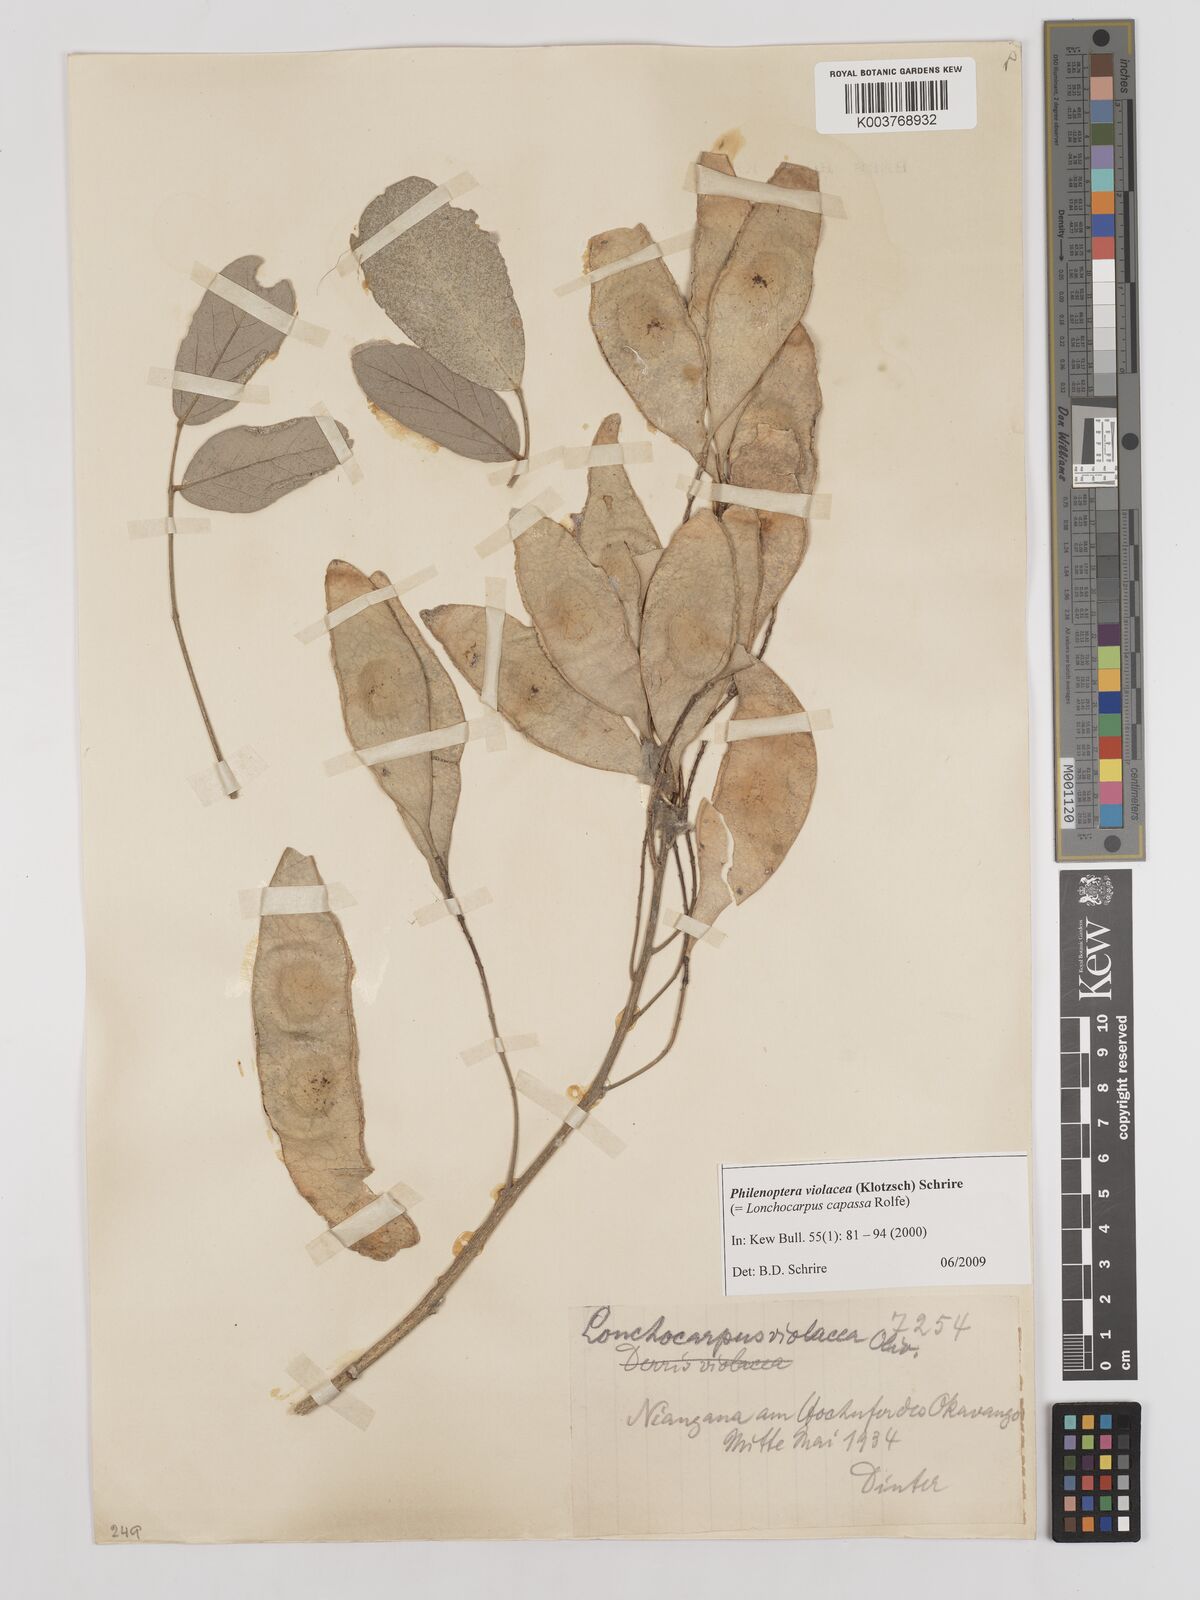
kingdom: Plantae
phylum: Tracheophyta
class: Magnoliopsida
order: Fabales
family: Fabaceae
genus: Philenoptera
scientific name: Philenoptera violacea
